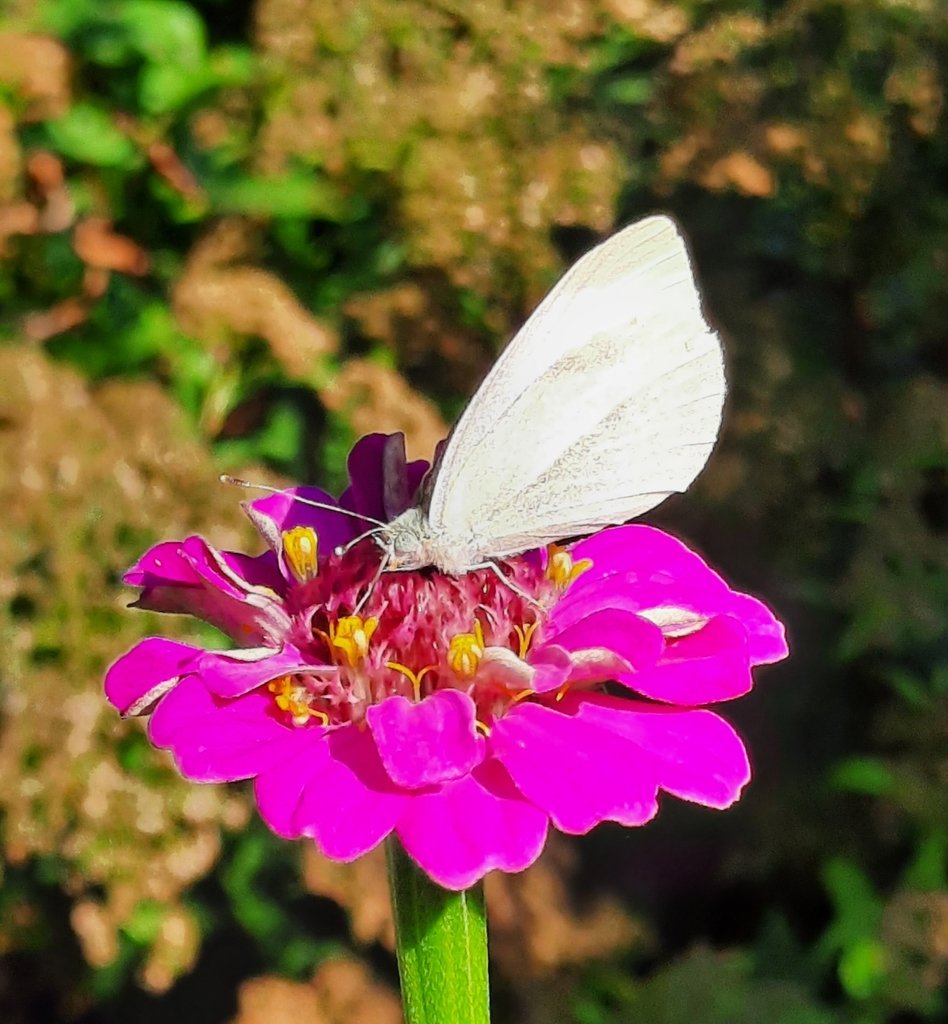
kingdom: Animalia
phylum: Arthropoda
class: Insecta
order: Lepidoptera
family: Pieridae
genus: Pieris
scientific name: Pieris rapae
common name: Cabbage White
